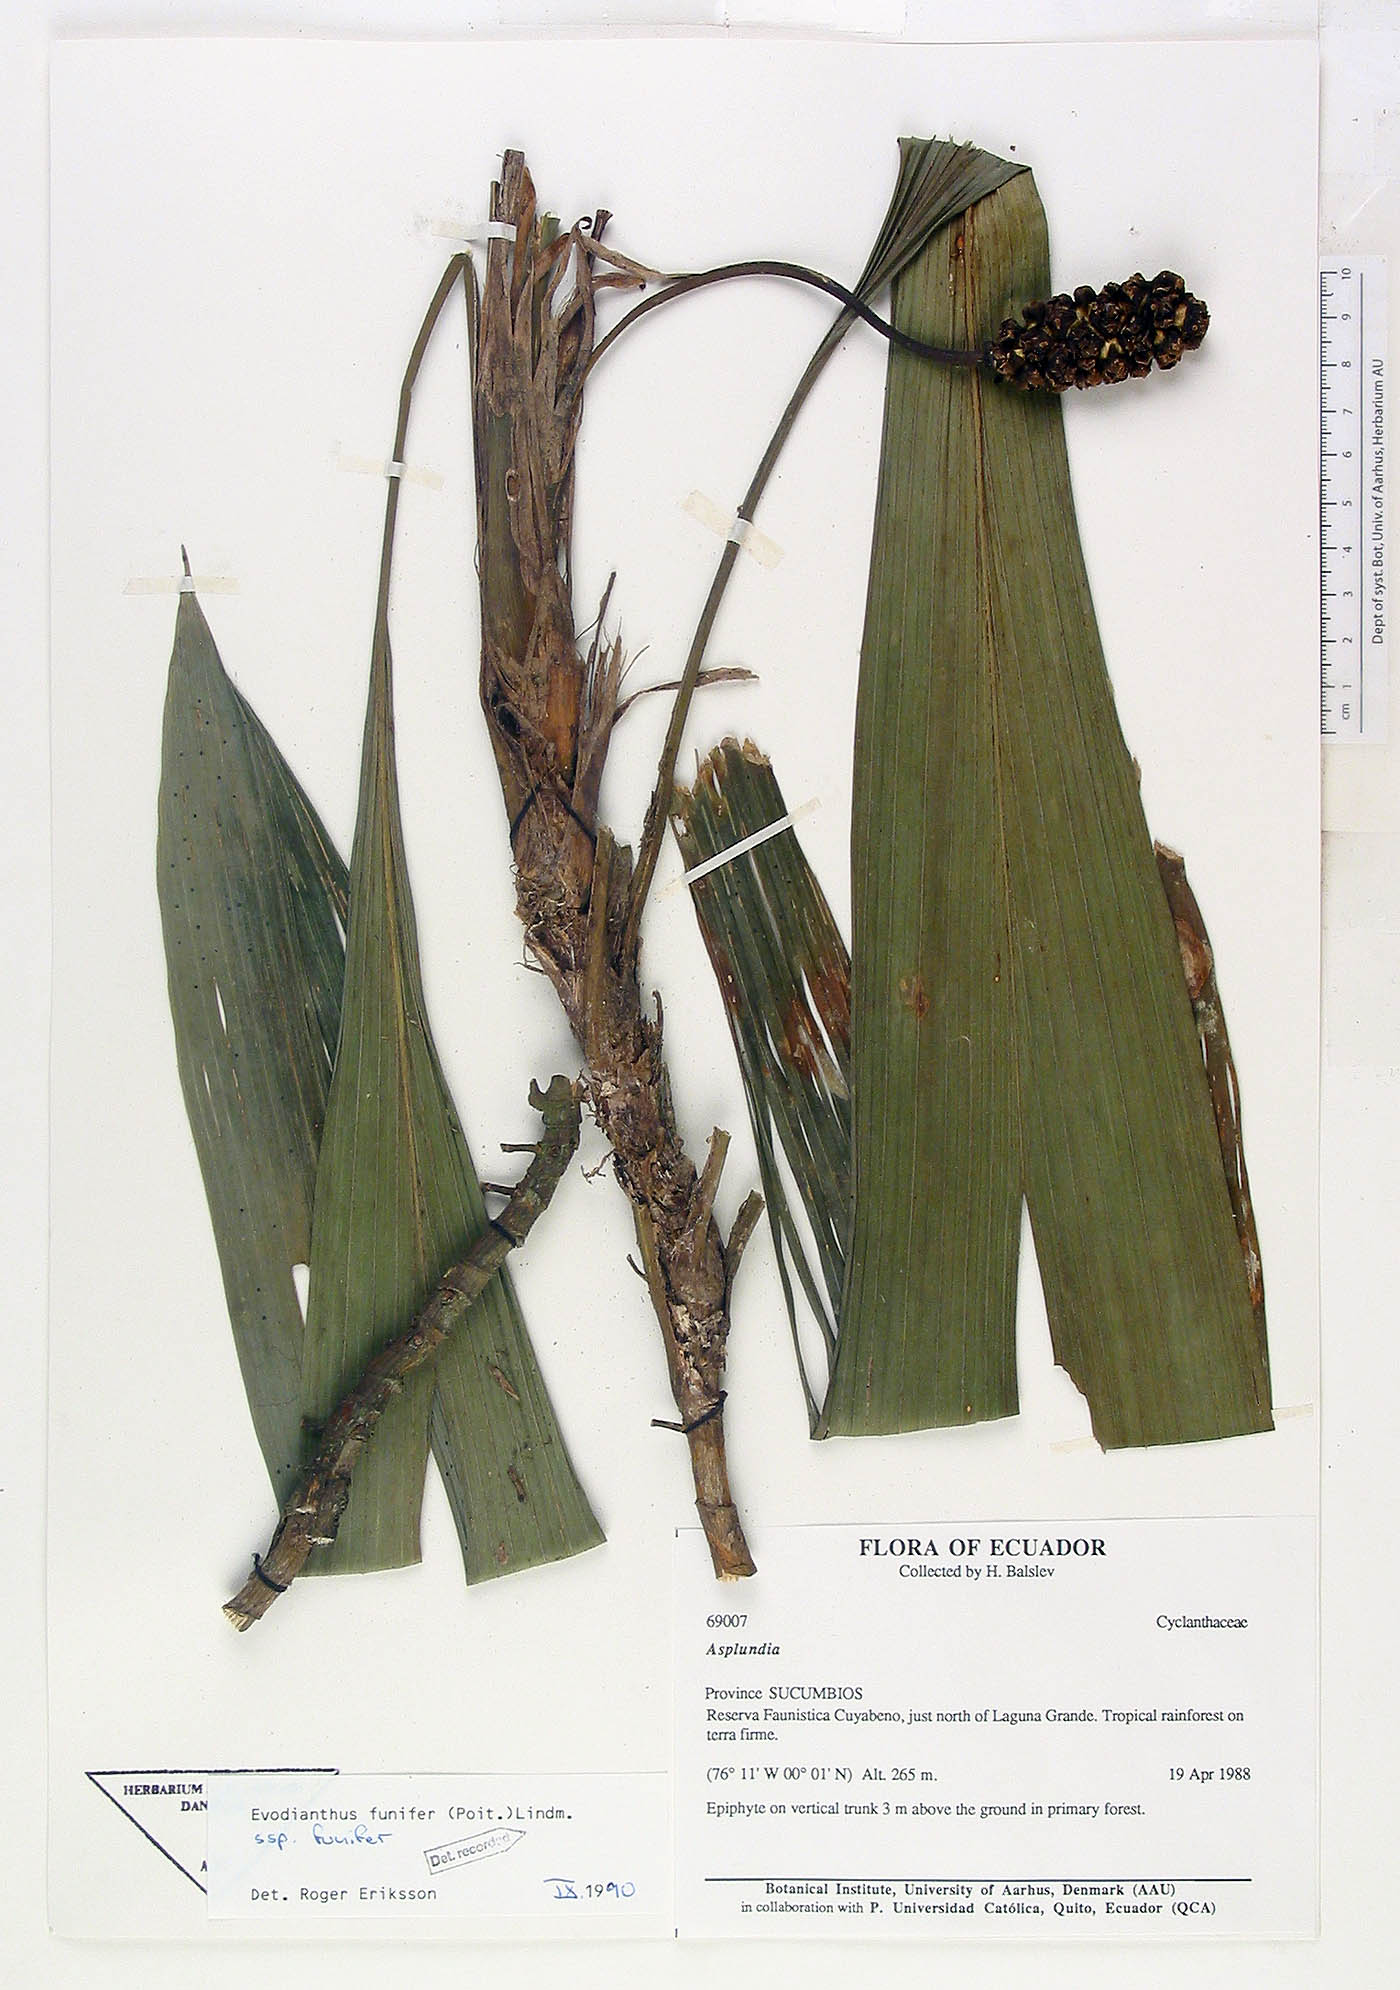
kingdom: Plantae
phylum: Tracheophyta
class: Liliopsida
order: Pandanales
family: Cyclanthaceae
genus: Evodianthus
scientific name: Evodianthus funifer
